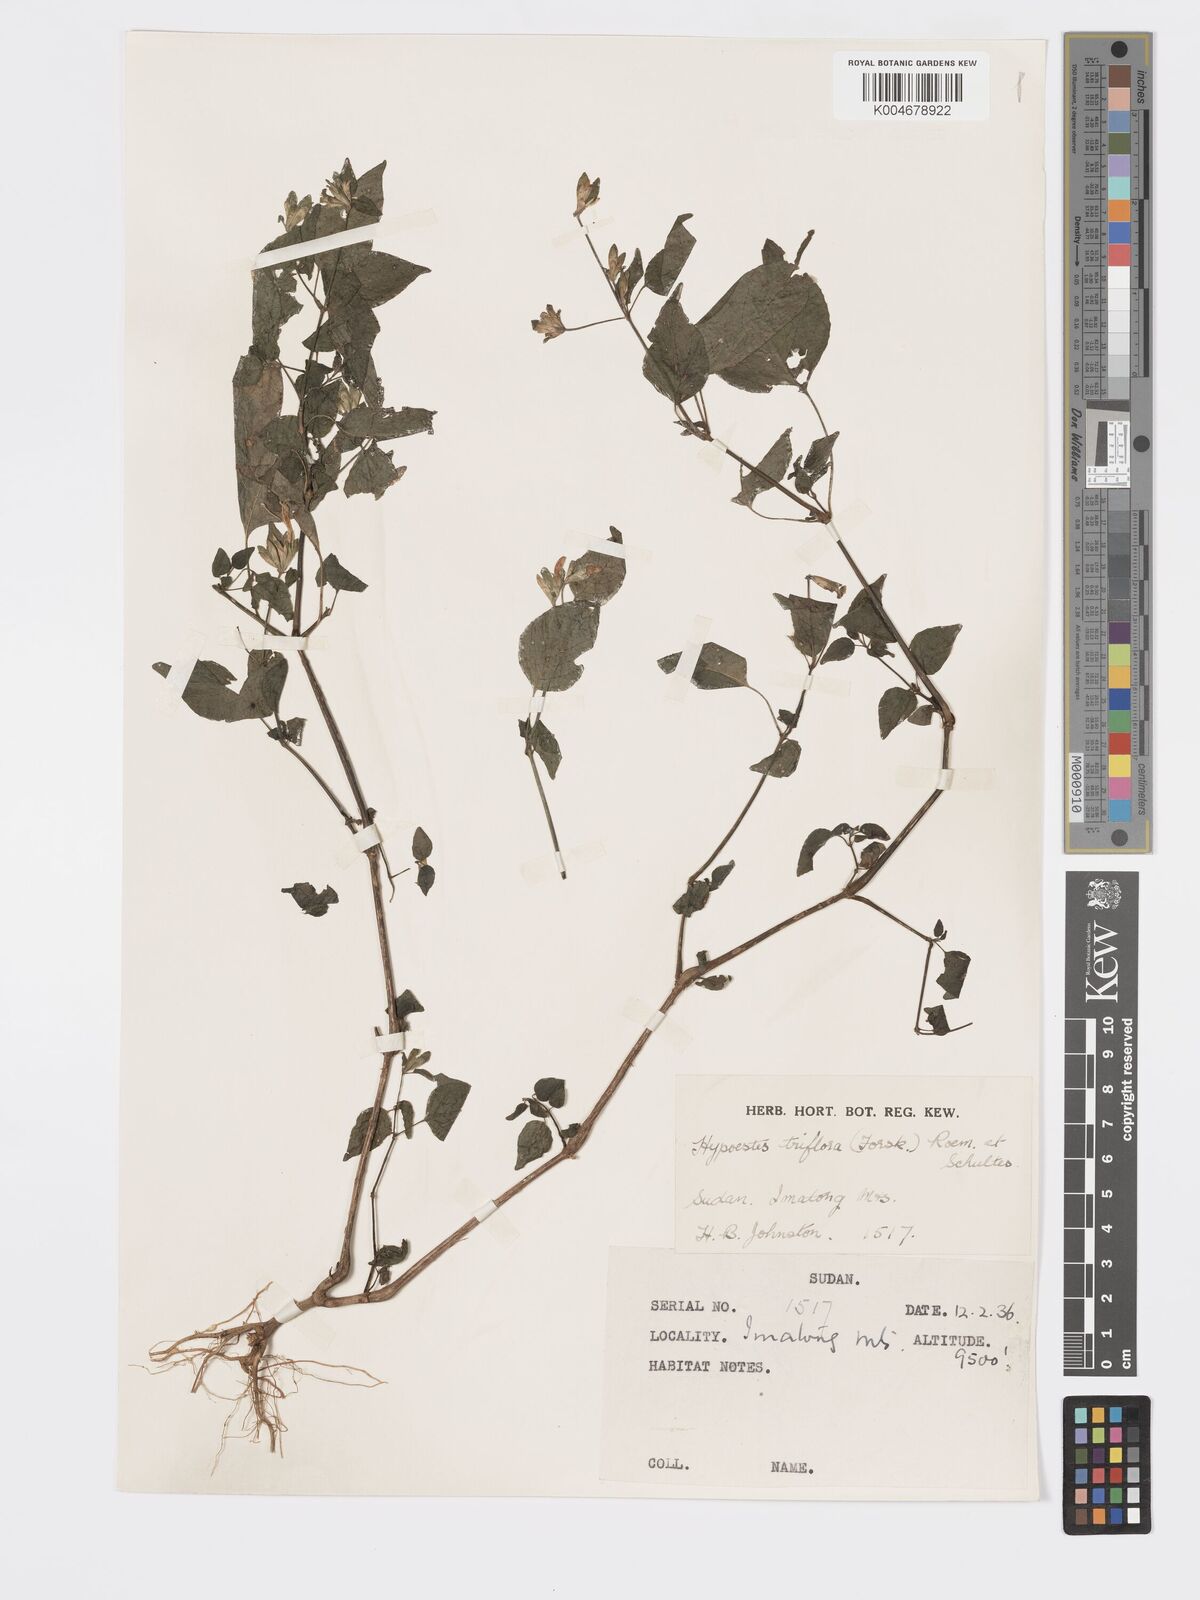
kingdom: Plantae
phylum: Tracheophyta
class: Magnoliopsida
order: Lamiales
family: Acanthaceae
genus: Hypoestes
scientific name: Hypoestes triflora
